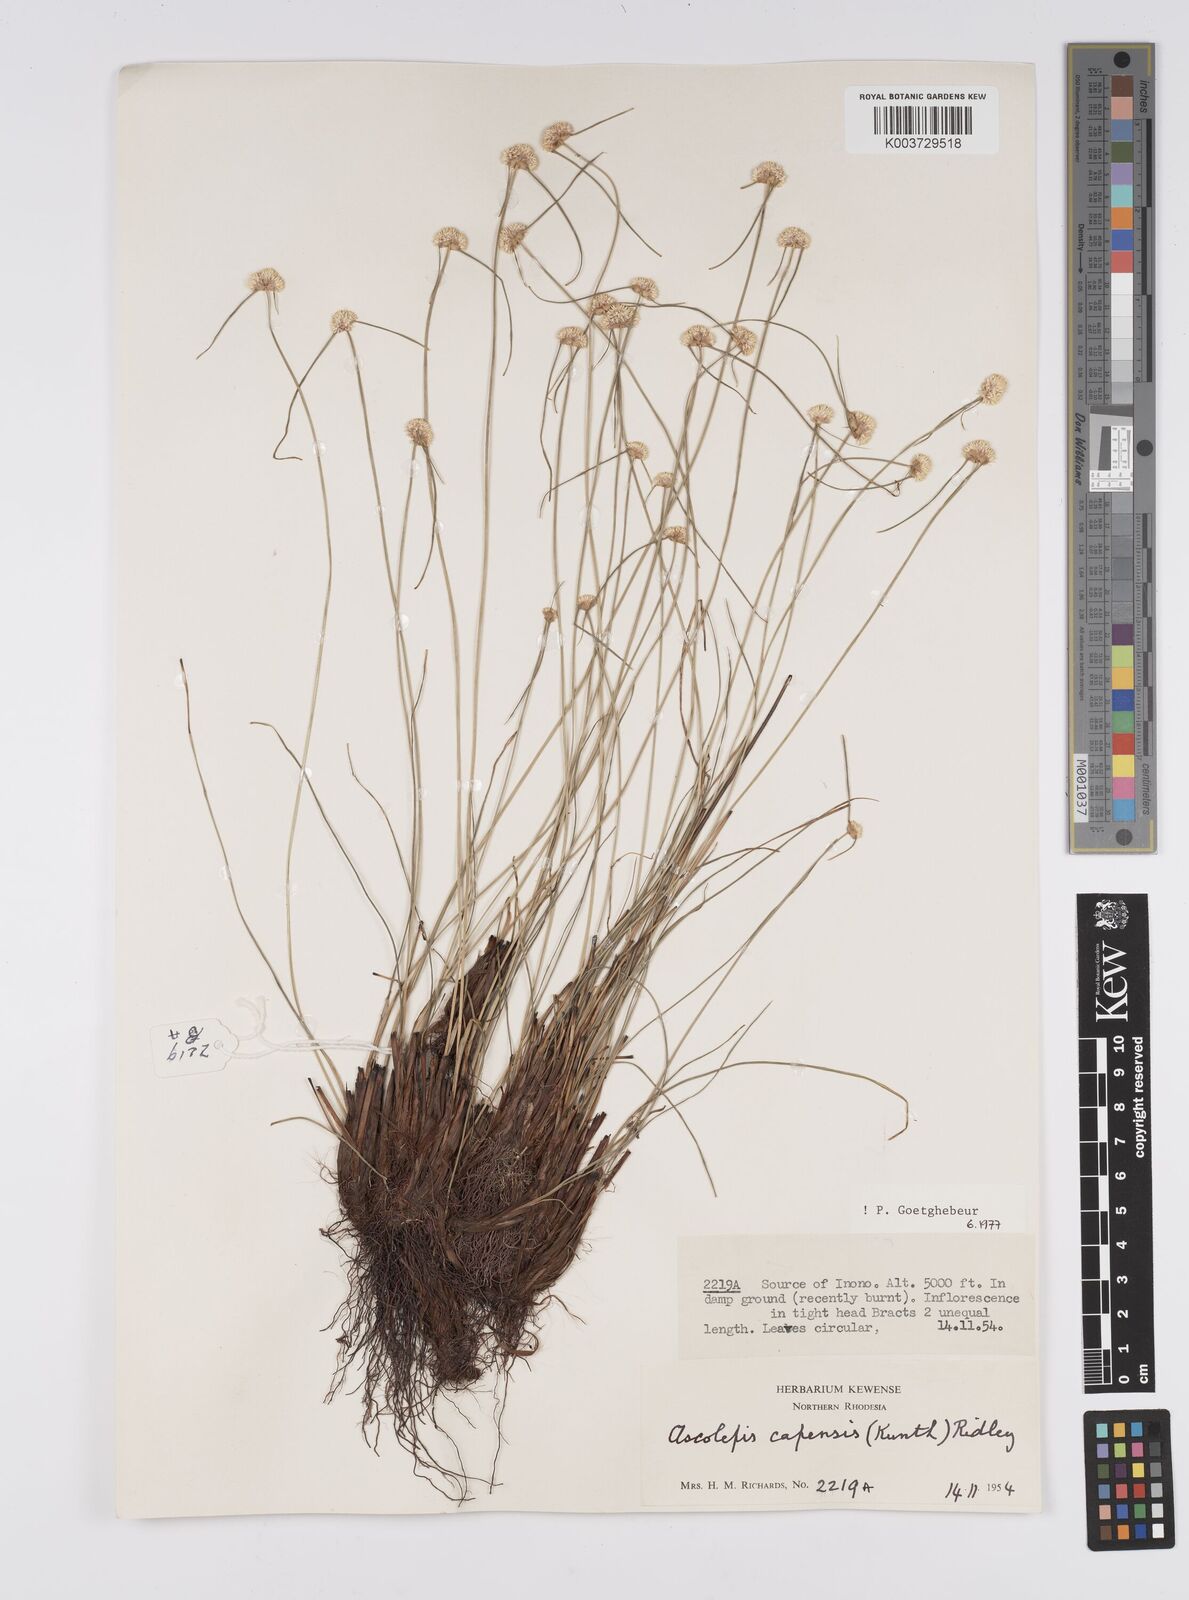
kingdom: Plantae
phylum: Tracheophyta
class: Liliopsida
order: Poales
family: Cyperaceae
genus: Cyperus
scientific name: Cyperus
